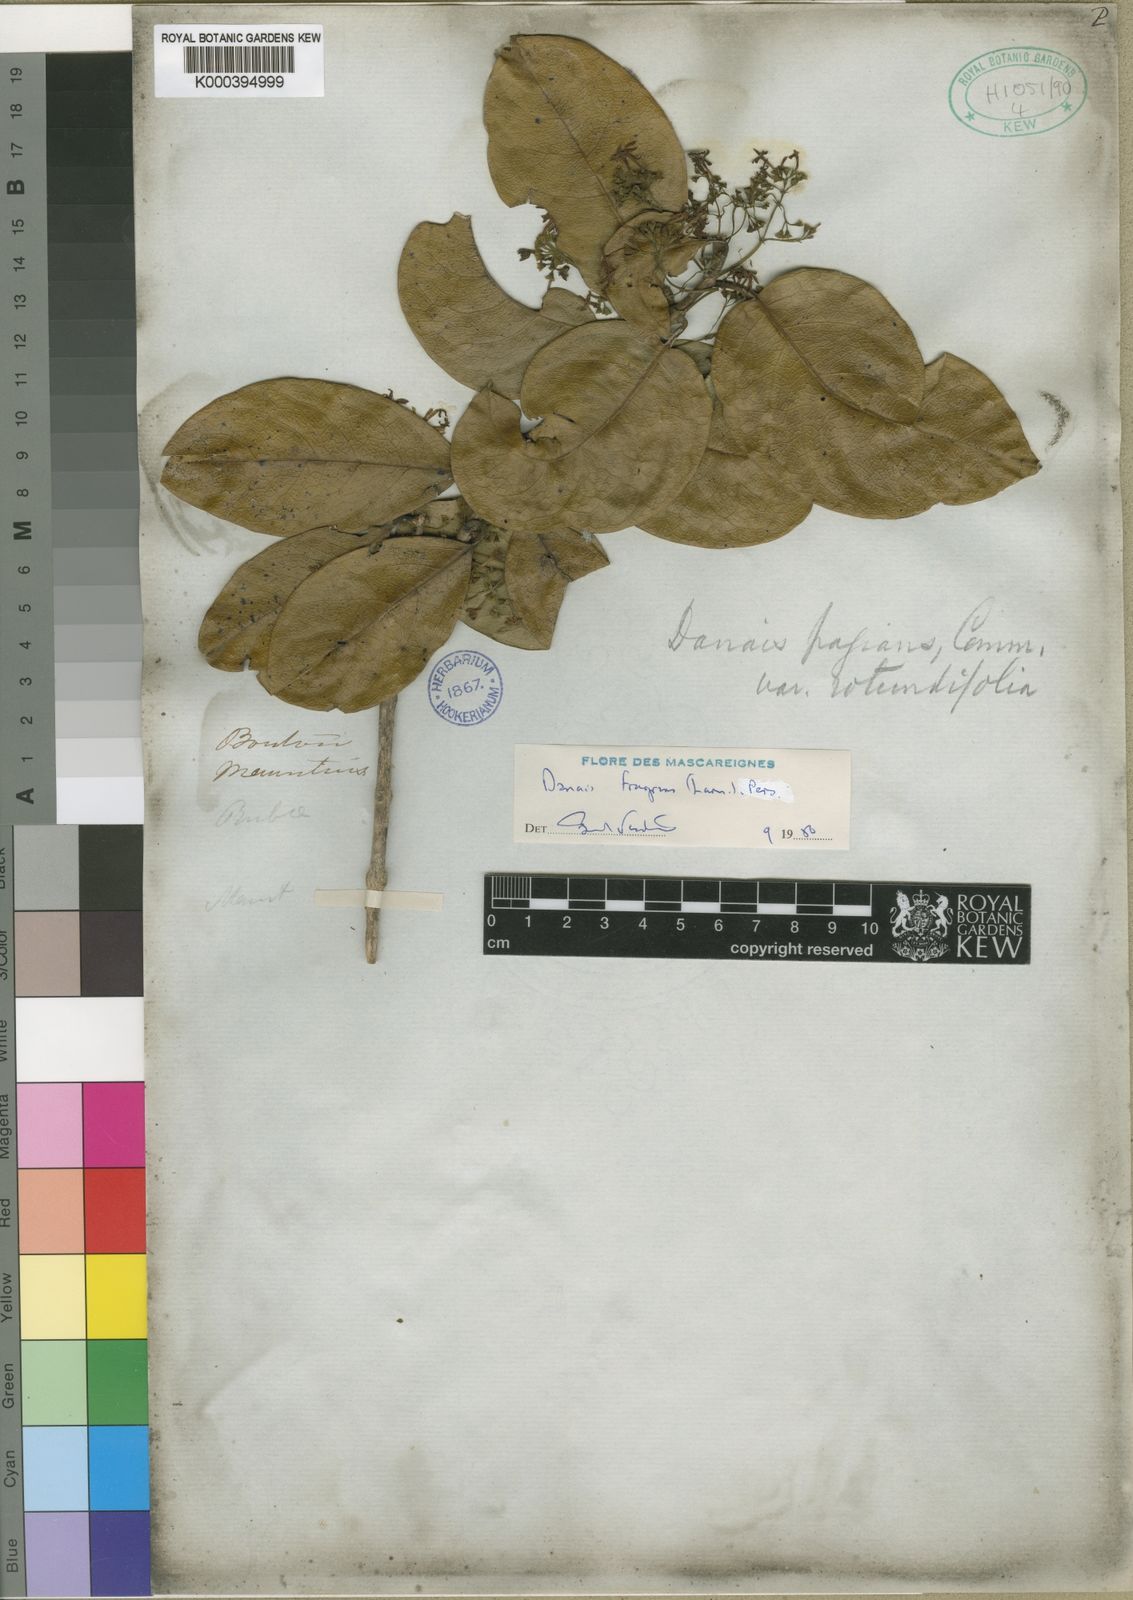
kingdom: Plantae
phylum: Tracheophyta
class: Magnoliopsida
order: Gentianales
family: Rubiaceae
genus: Danais
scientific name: Danais fragrans
